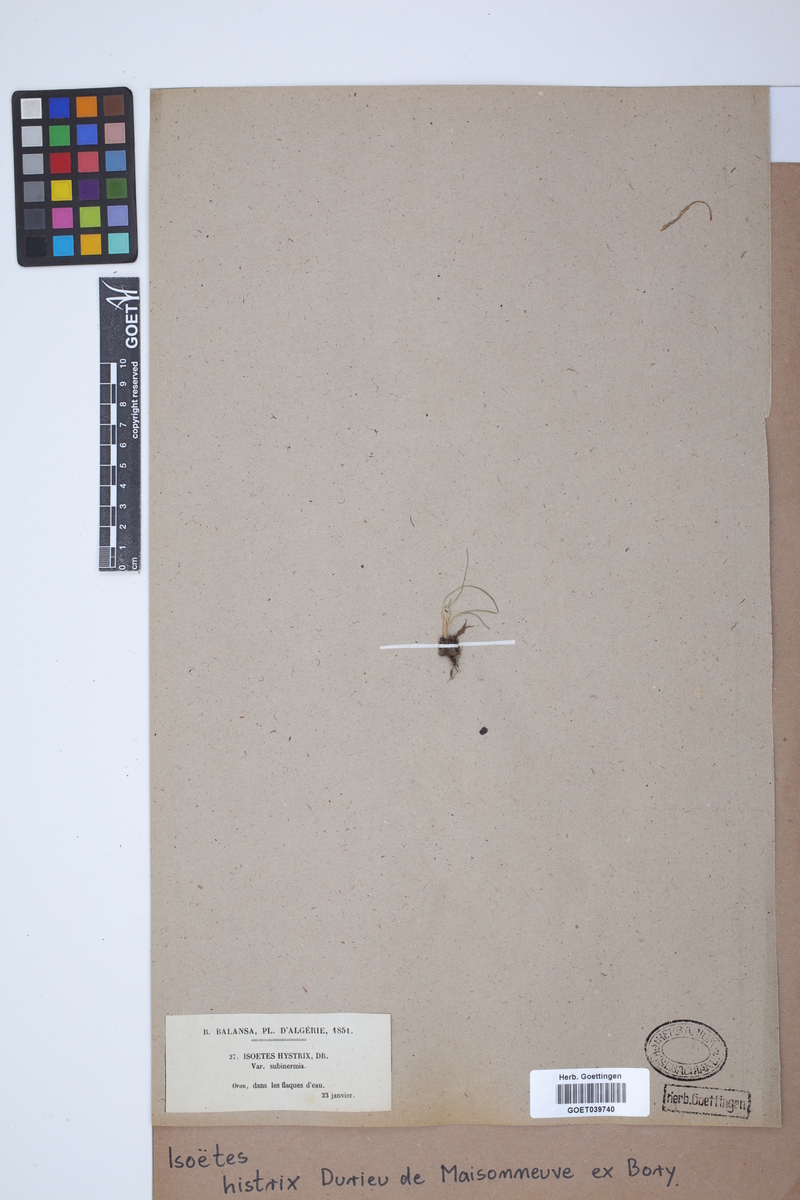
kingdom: Plantae
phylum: Tracheophyta
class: Lycopodiopsida
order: Isoetales
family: Isoetaceae
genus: Isoetes
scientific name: Isoetes histrix
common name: Land quillwort
